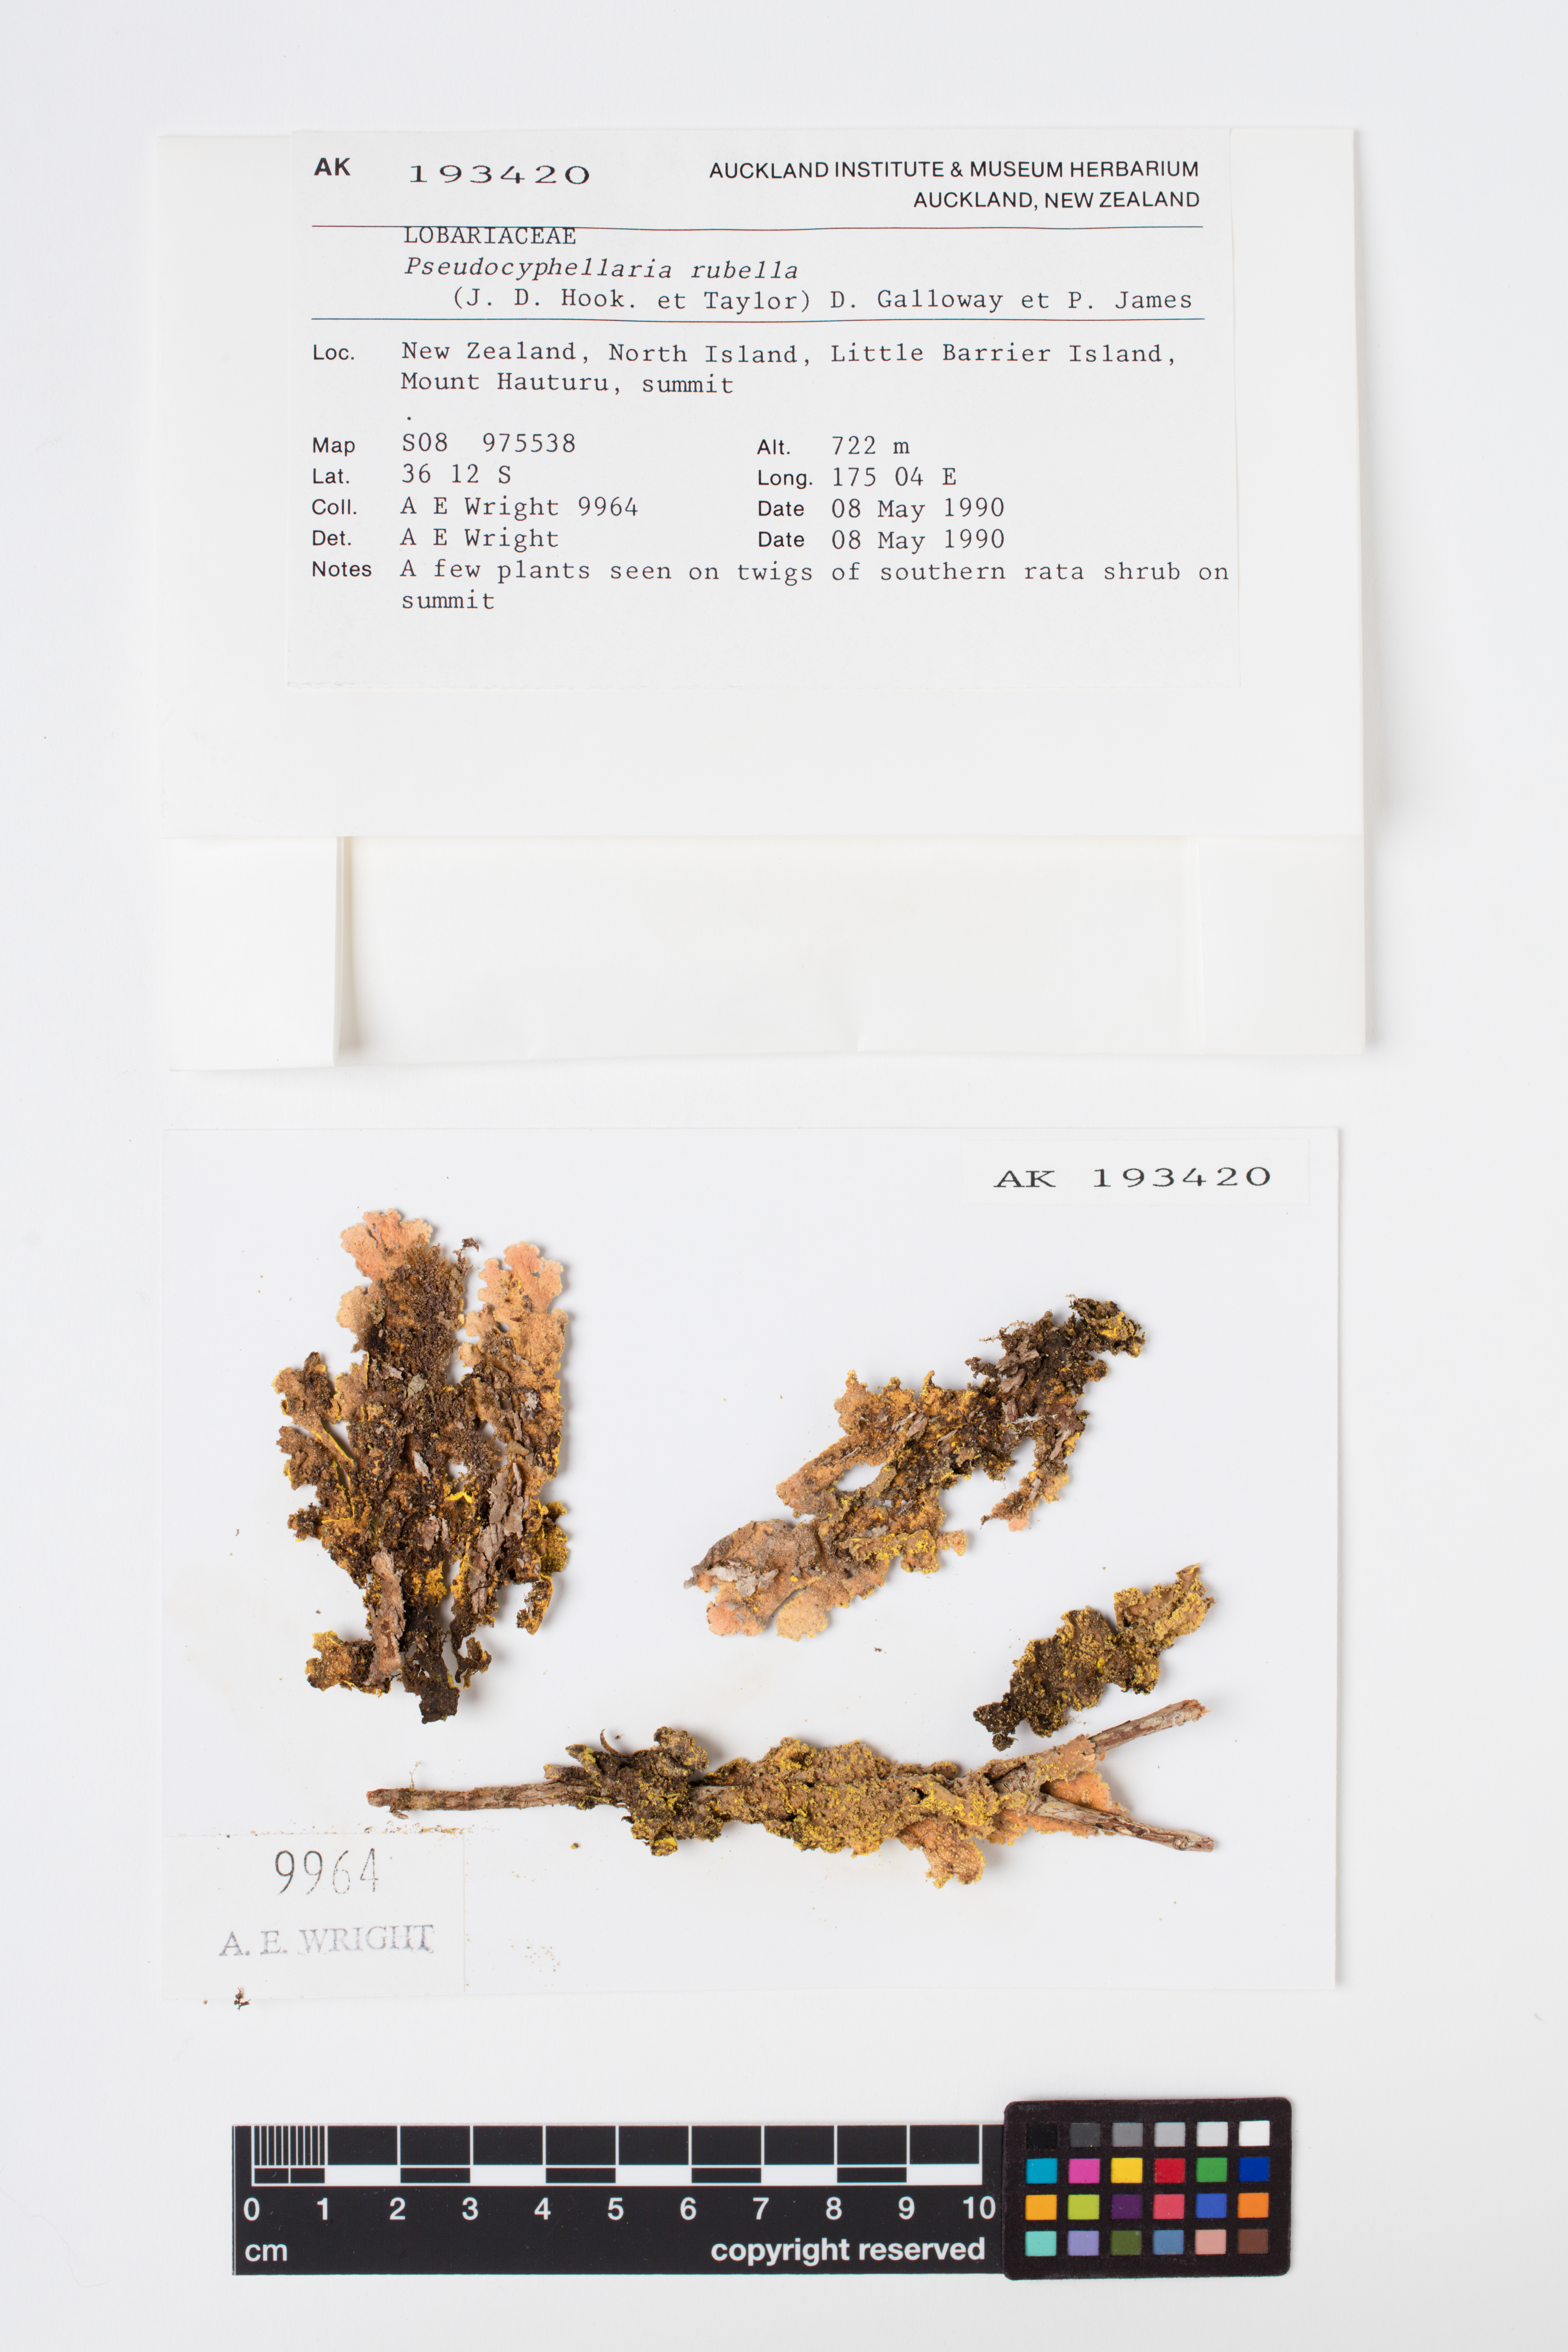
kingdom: Fungi
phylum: Ascomycota
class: Lecanoromycetes
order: Peltigerales
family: Lobariaceae
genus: Pseudocyphellaria
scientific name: Pseudocyphellaria rubella
